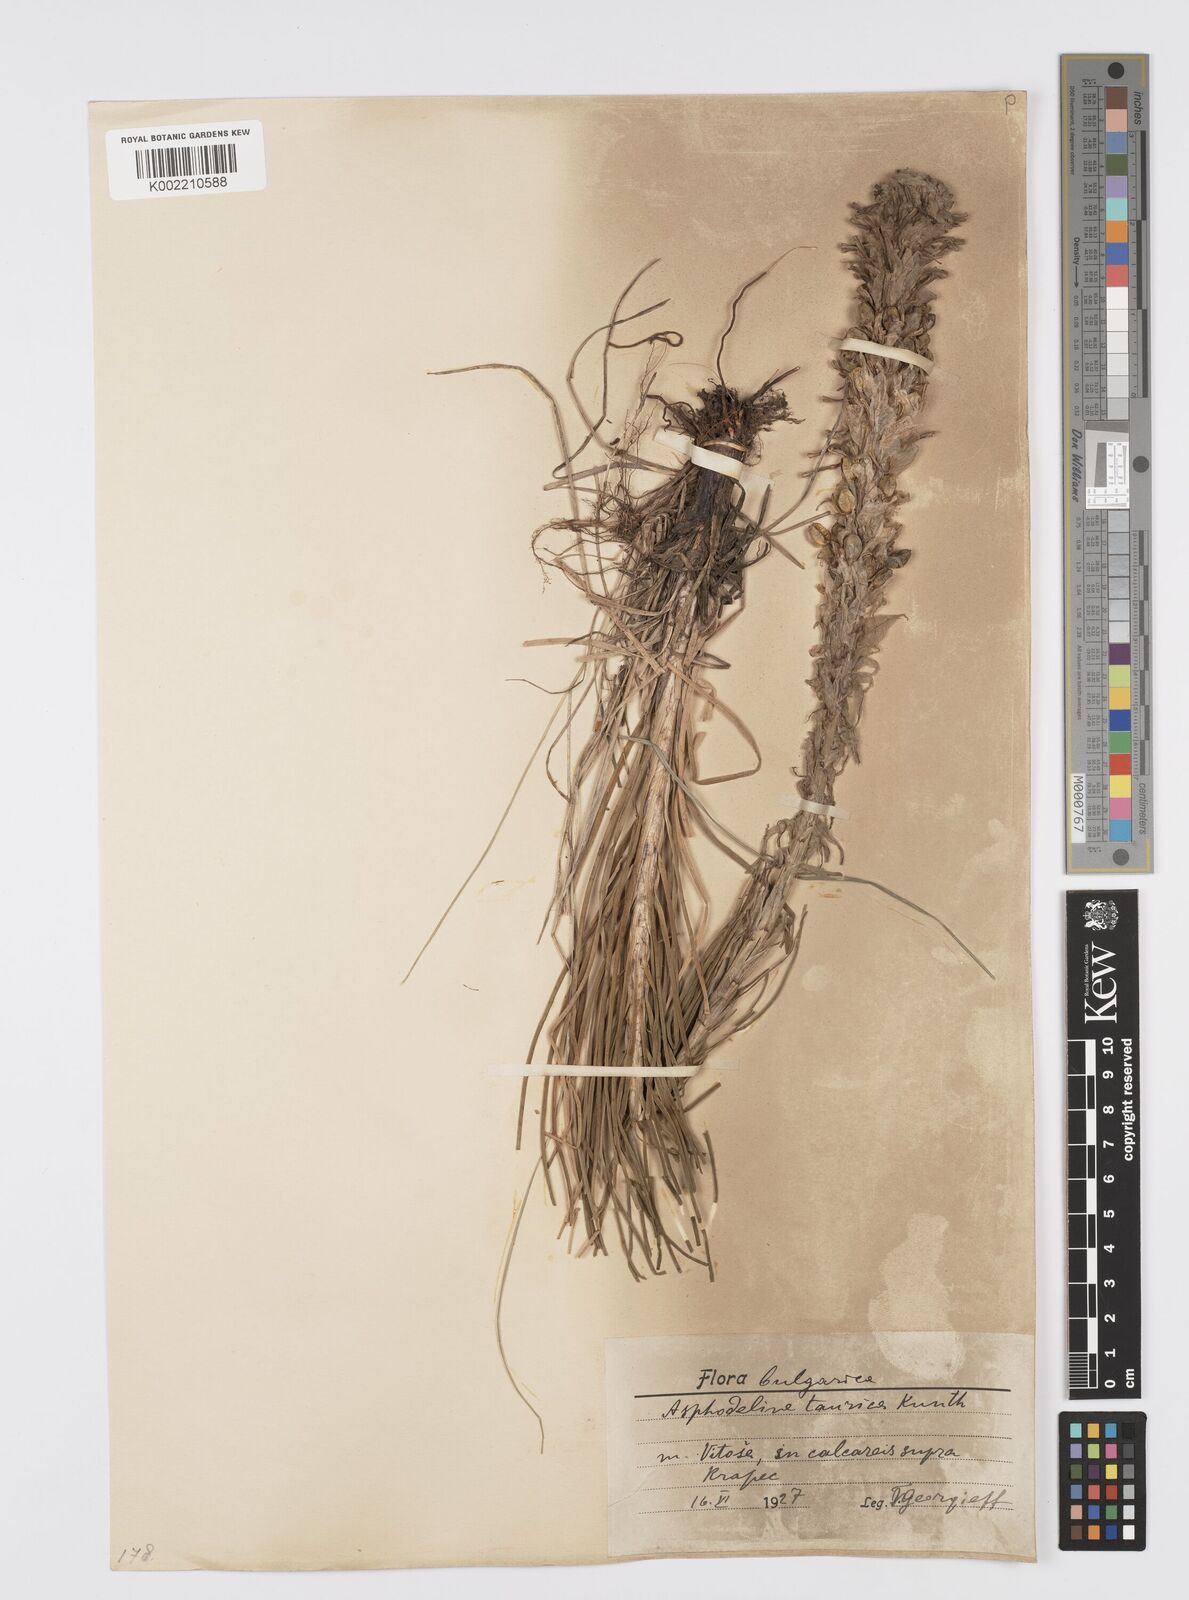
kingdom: Plantae
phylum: Tracheophyta
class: Liliopsida
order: Asparagales
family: Asphodelaceae
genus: Asphodeline
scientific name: Asphodeline taurica
